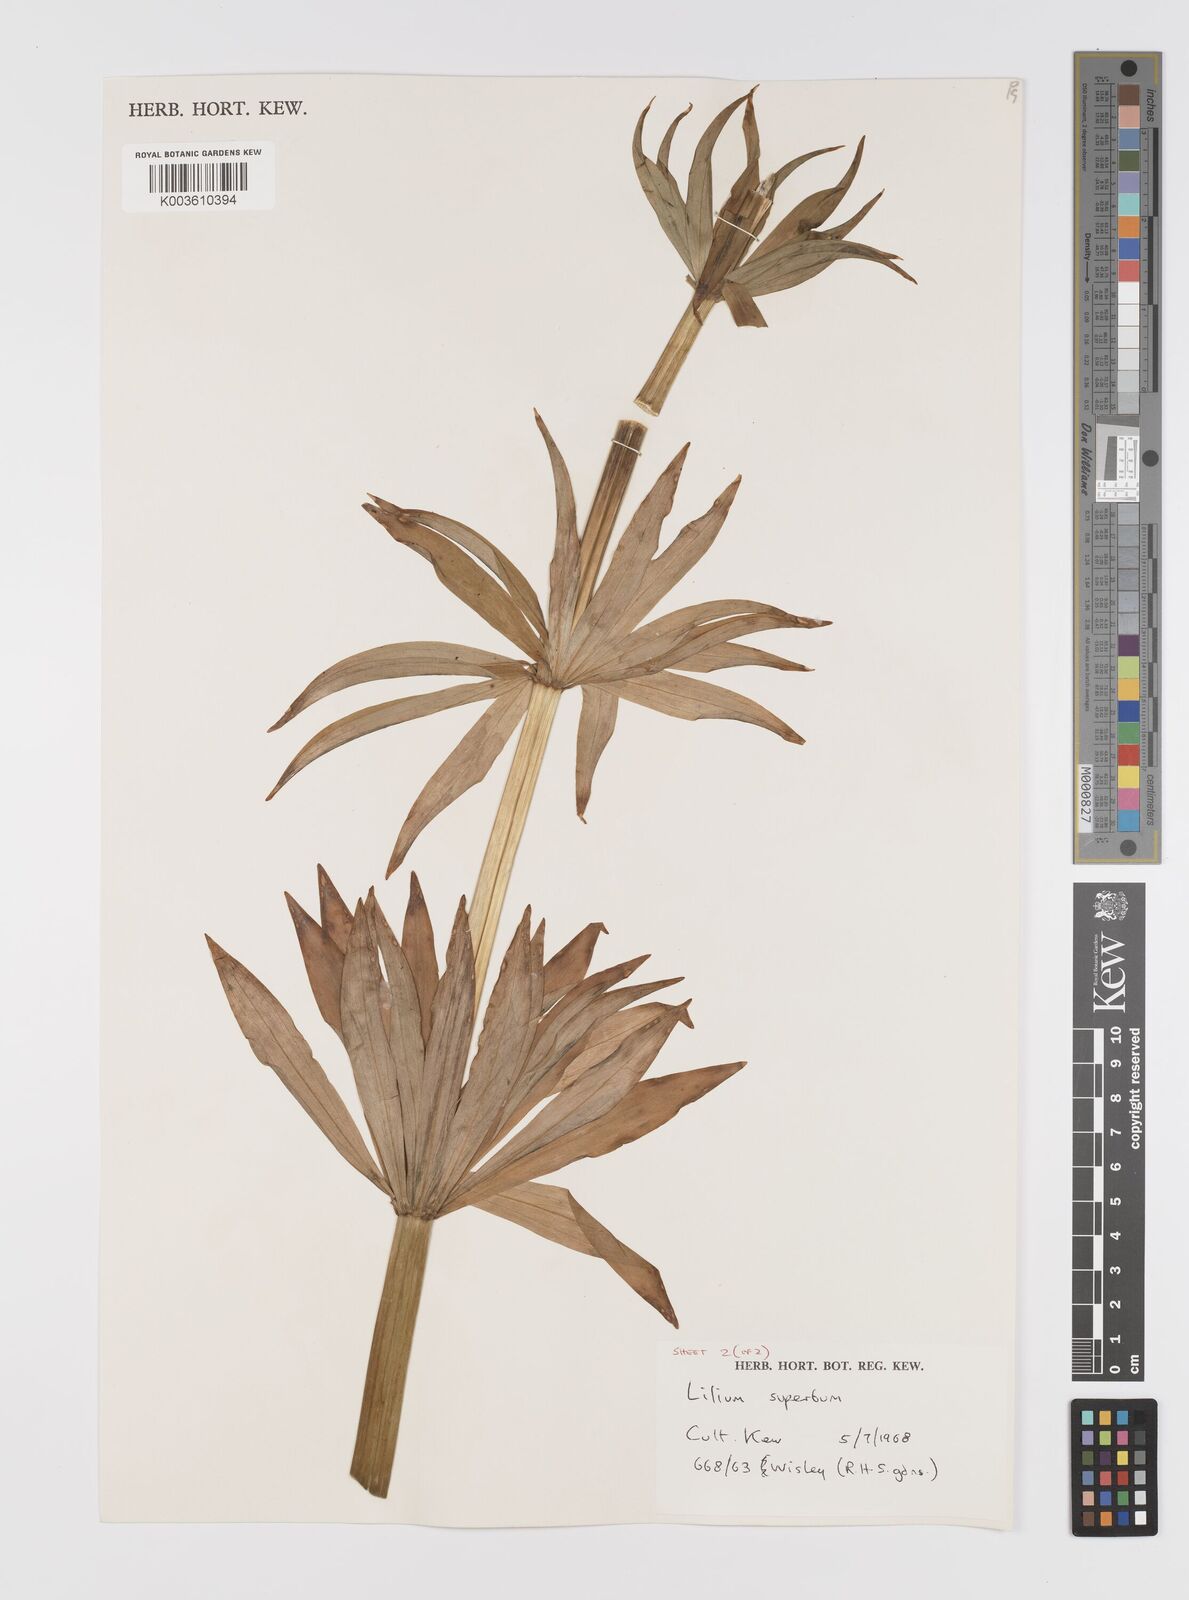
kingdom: Plantae
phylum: Tracheophyta
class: Liliopsida
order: Liliales
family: Liliaceae
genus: Lilium
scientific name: Lilium
